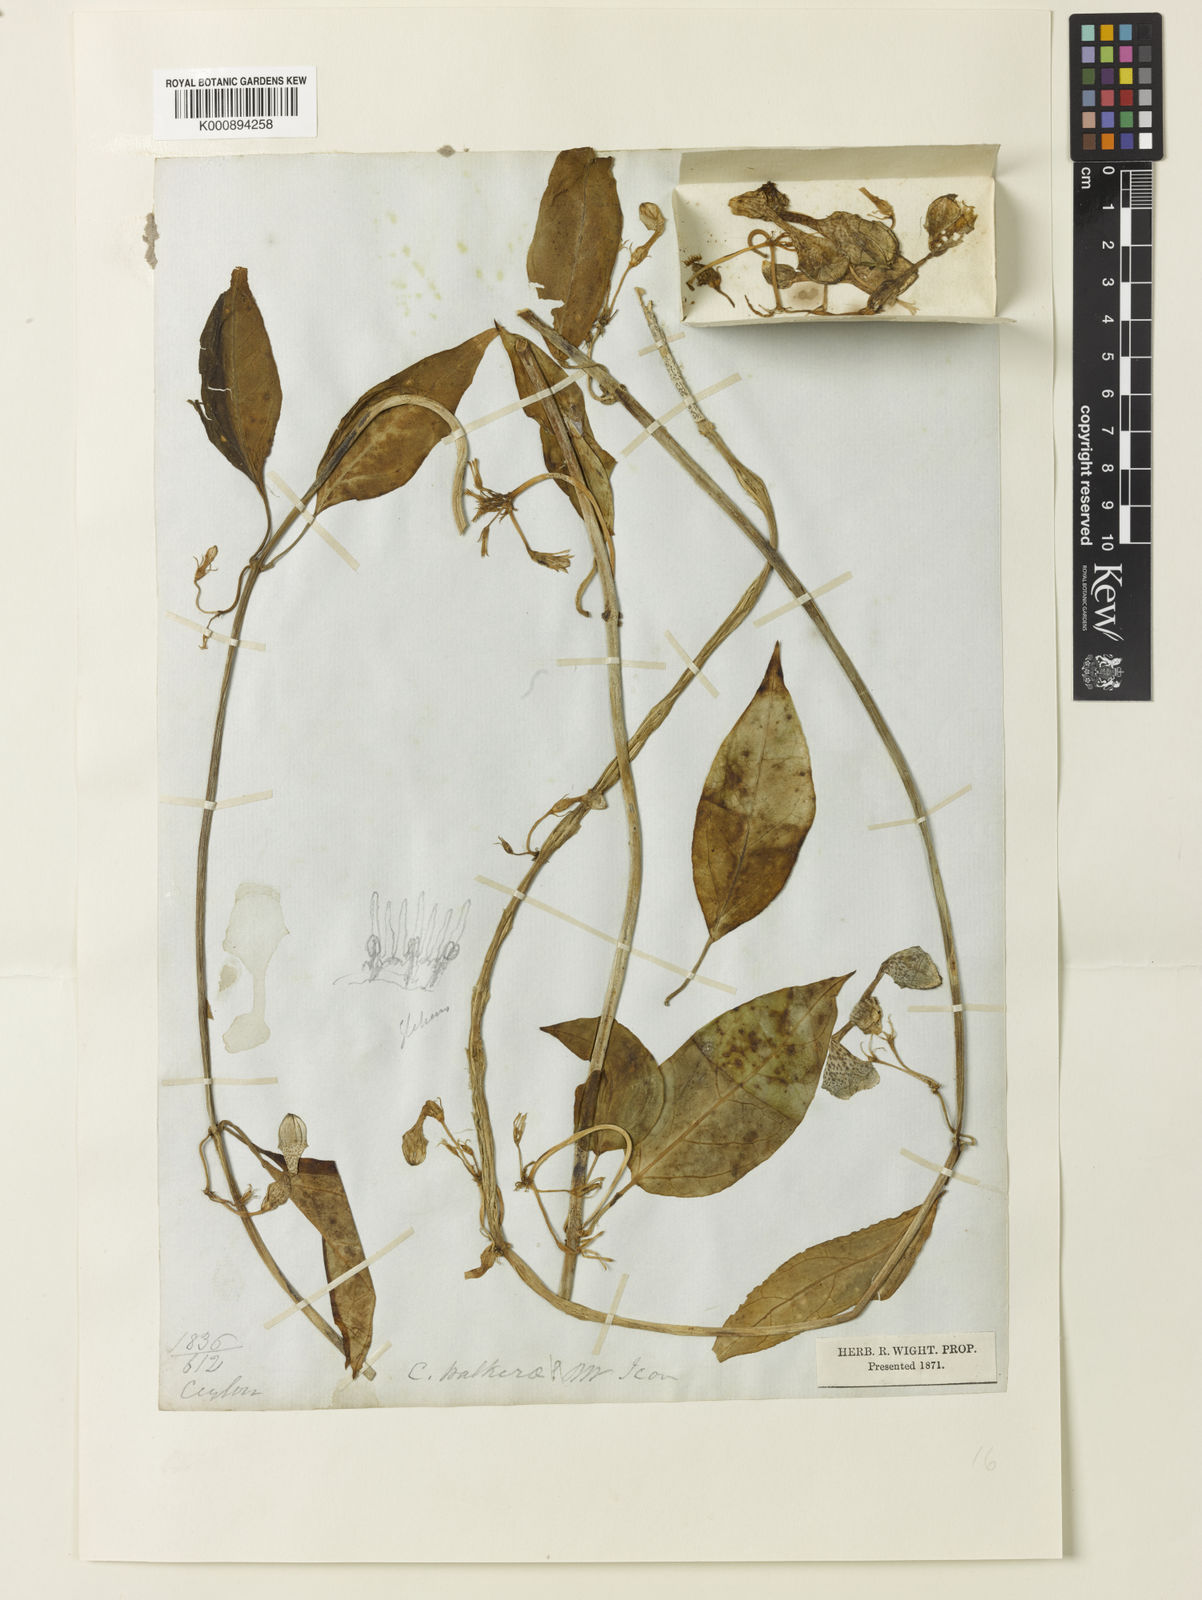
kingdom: Plantae
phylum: Tracheophyta
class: Magnoliopsida
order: Gentianales
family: Apocynaceae
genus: Ceropegia
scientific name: Ceropegia elegans
